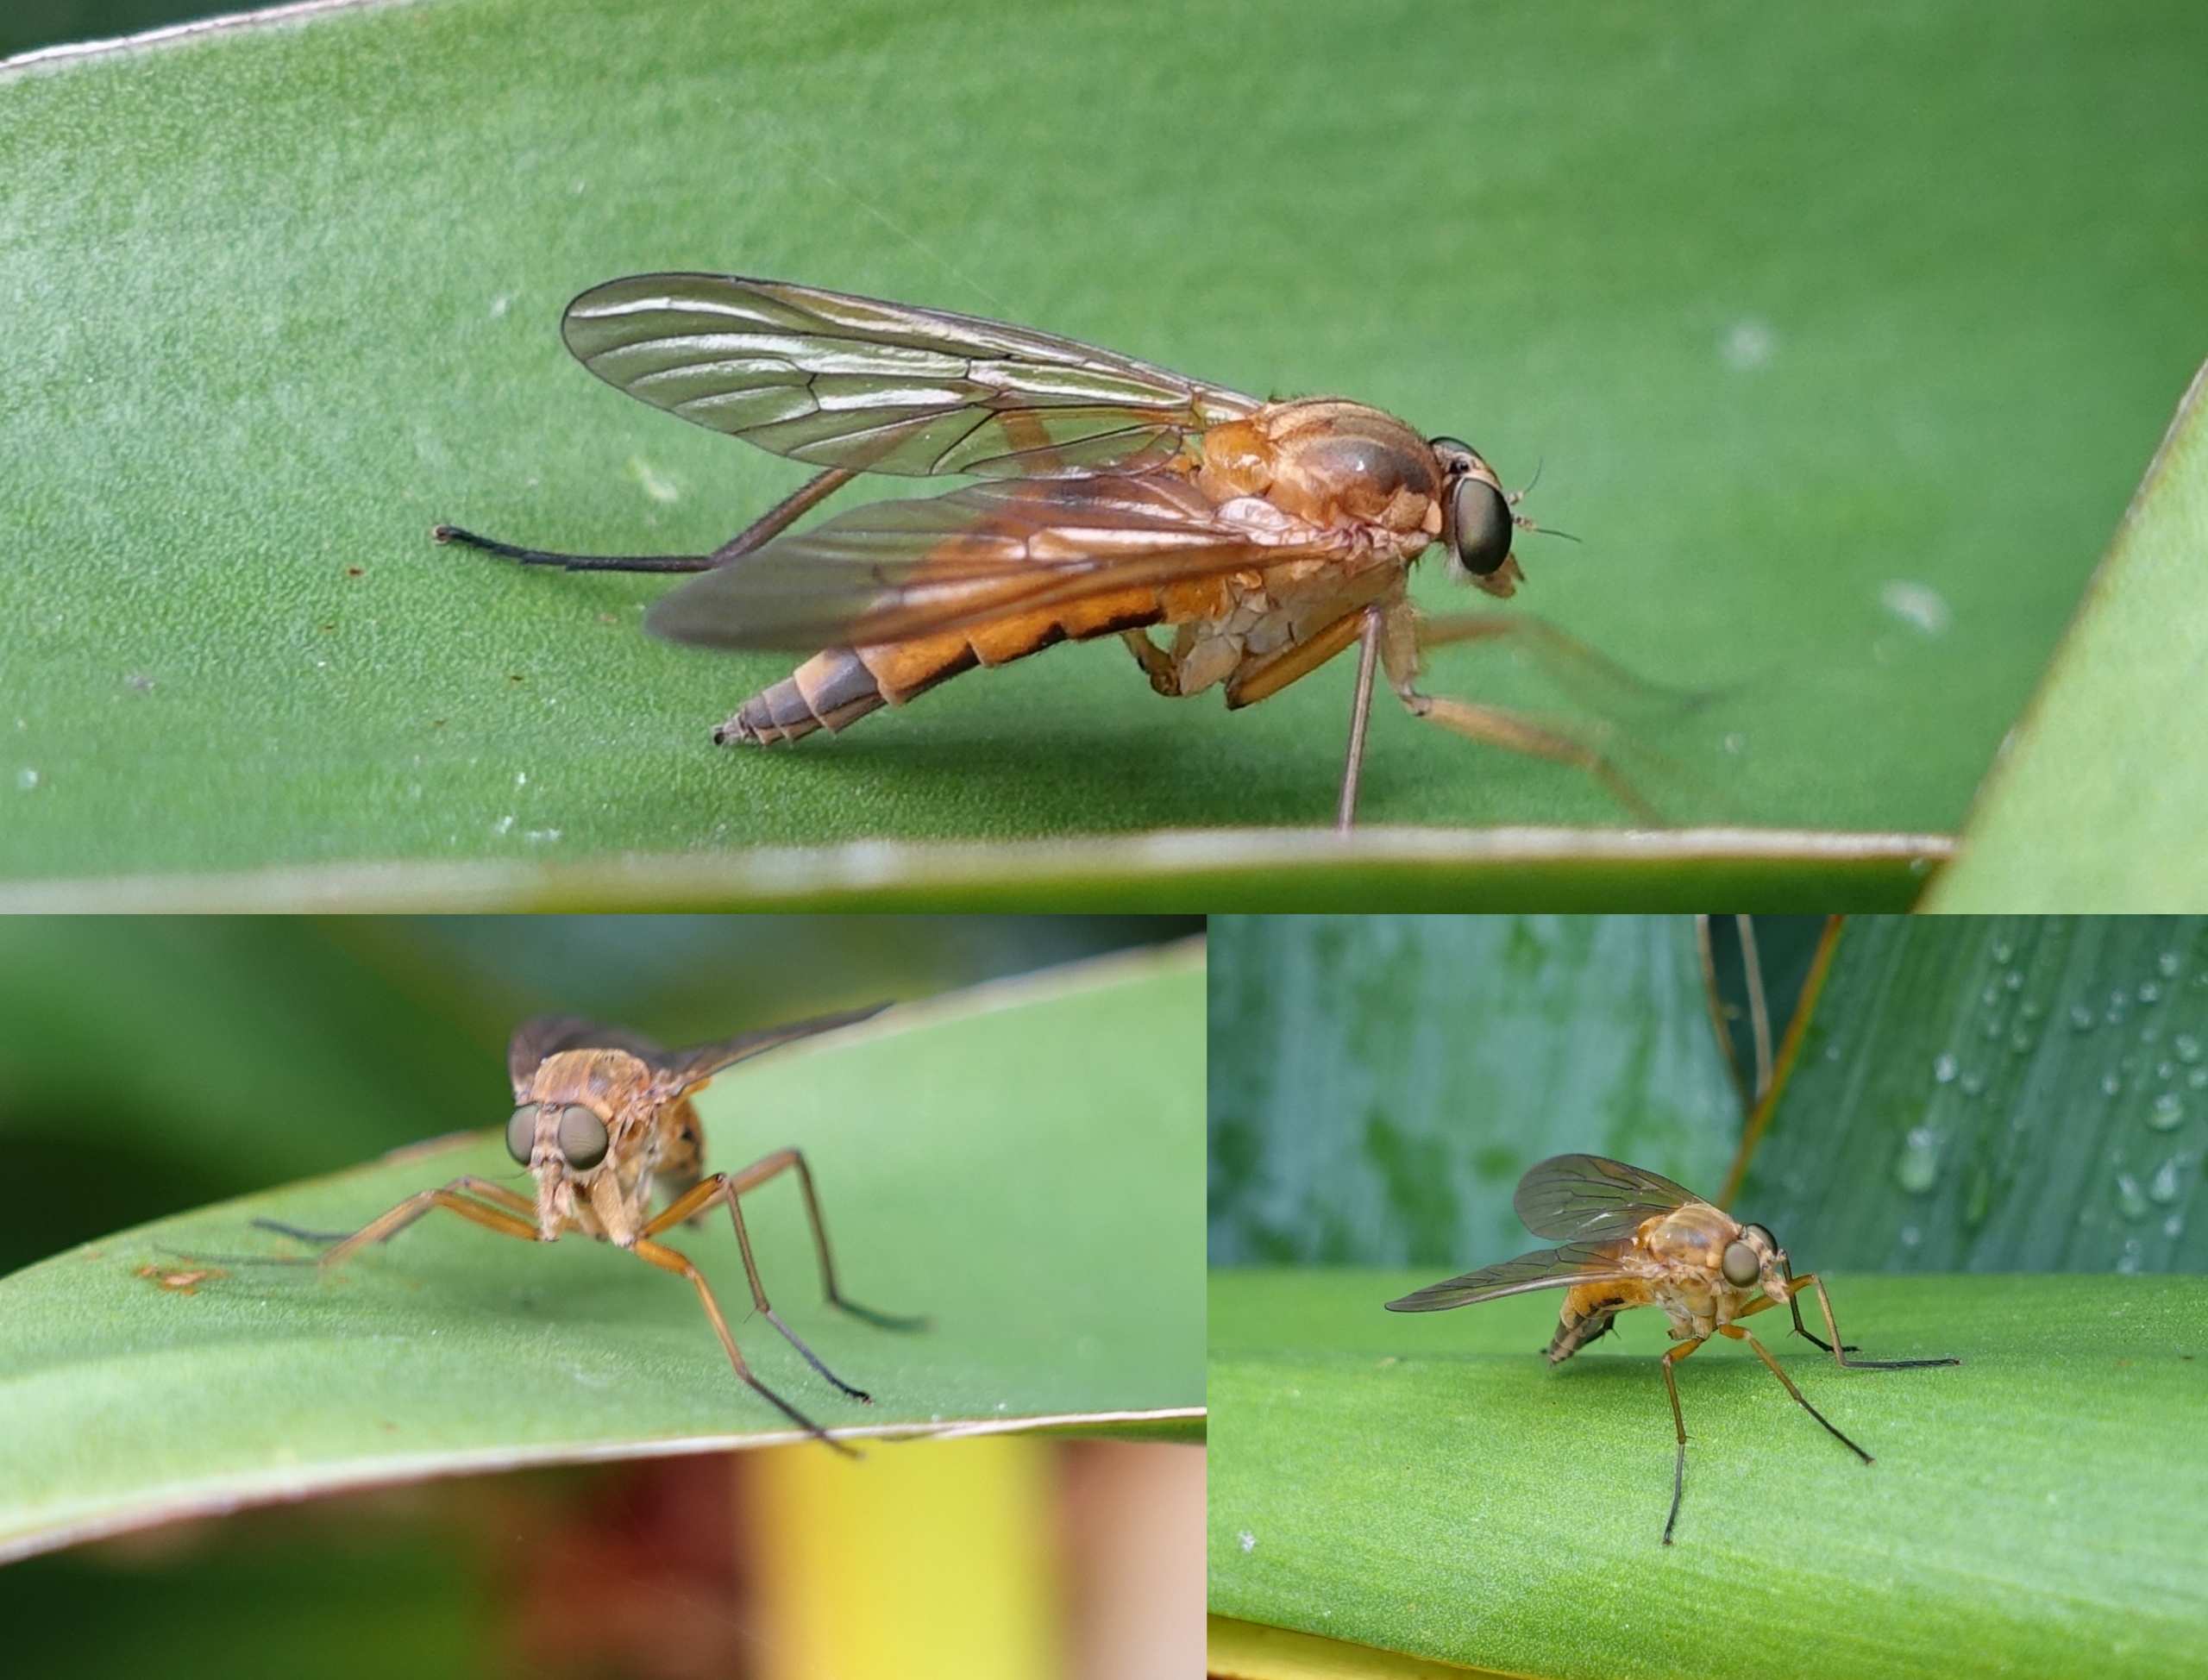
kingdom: Animalia
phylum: Arthropoda
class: Insecta
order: Diptera
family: Rhagionidae
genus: Rhagio
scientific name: Rhagio tringaria
